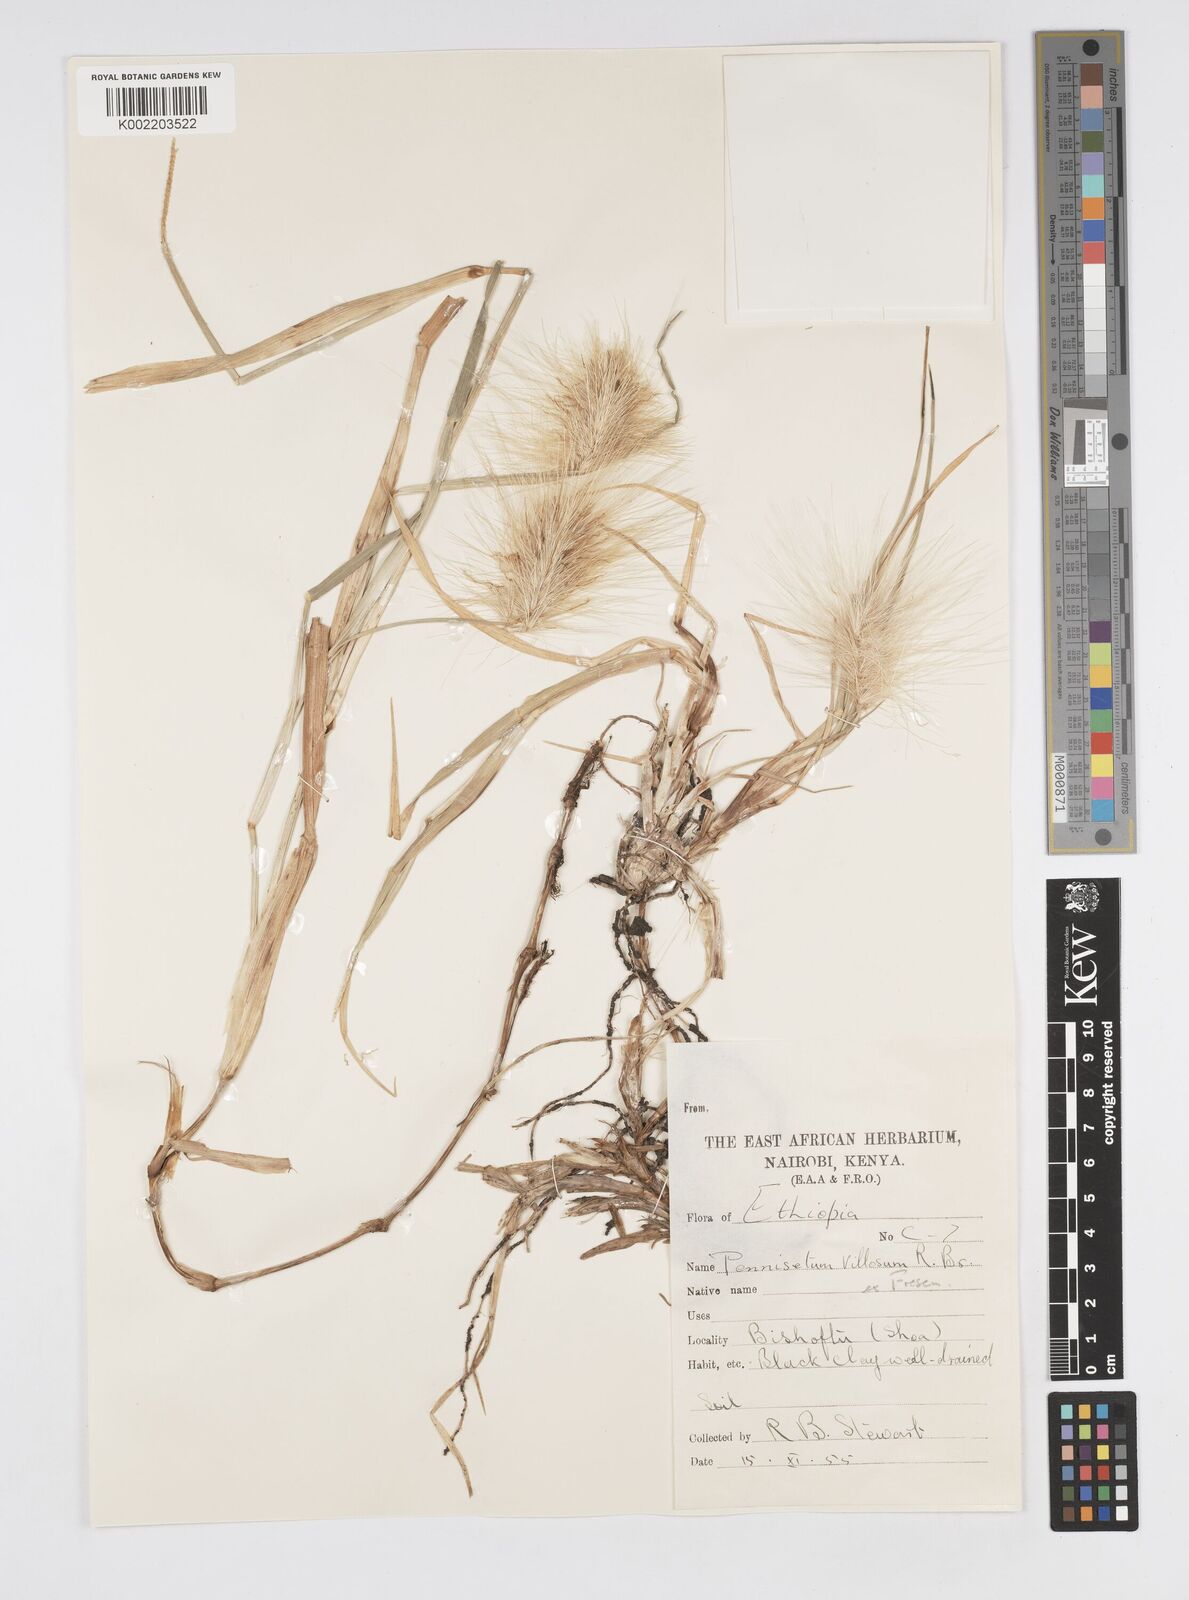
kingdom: Plantae
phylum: Tracheophyta
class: Liliopsida
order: Poales
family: Poaceae
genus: Cenchrus
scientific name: Cenchrus longisetus
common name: Feathertop
